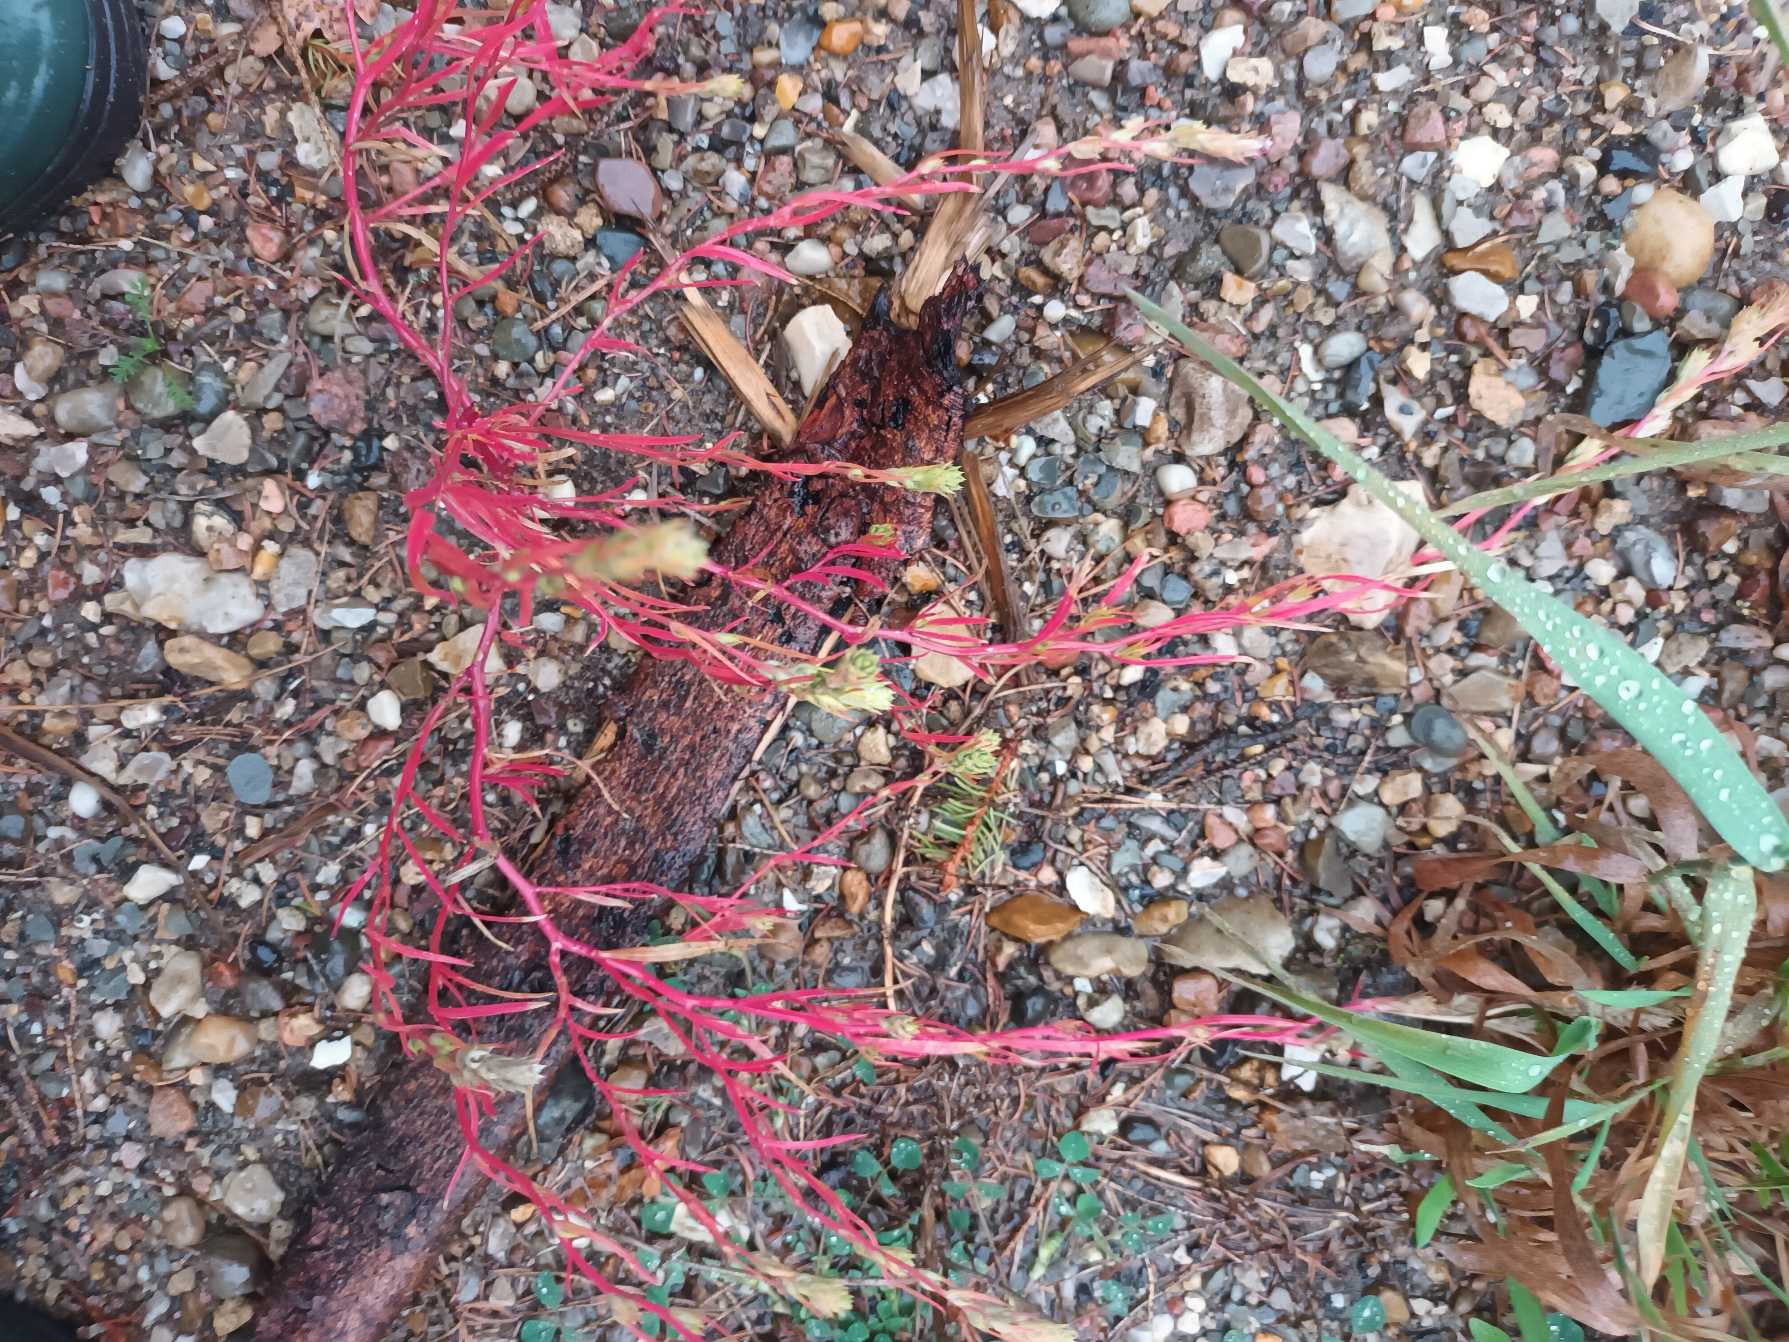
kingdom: Plantae
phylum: Tracheophyta
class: Magnoliopsida
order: Caryophyllales
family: Amaranthaceae
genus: Corispermum
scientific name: Corispermum intermedium
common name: Lusefrø
